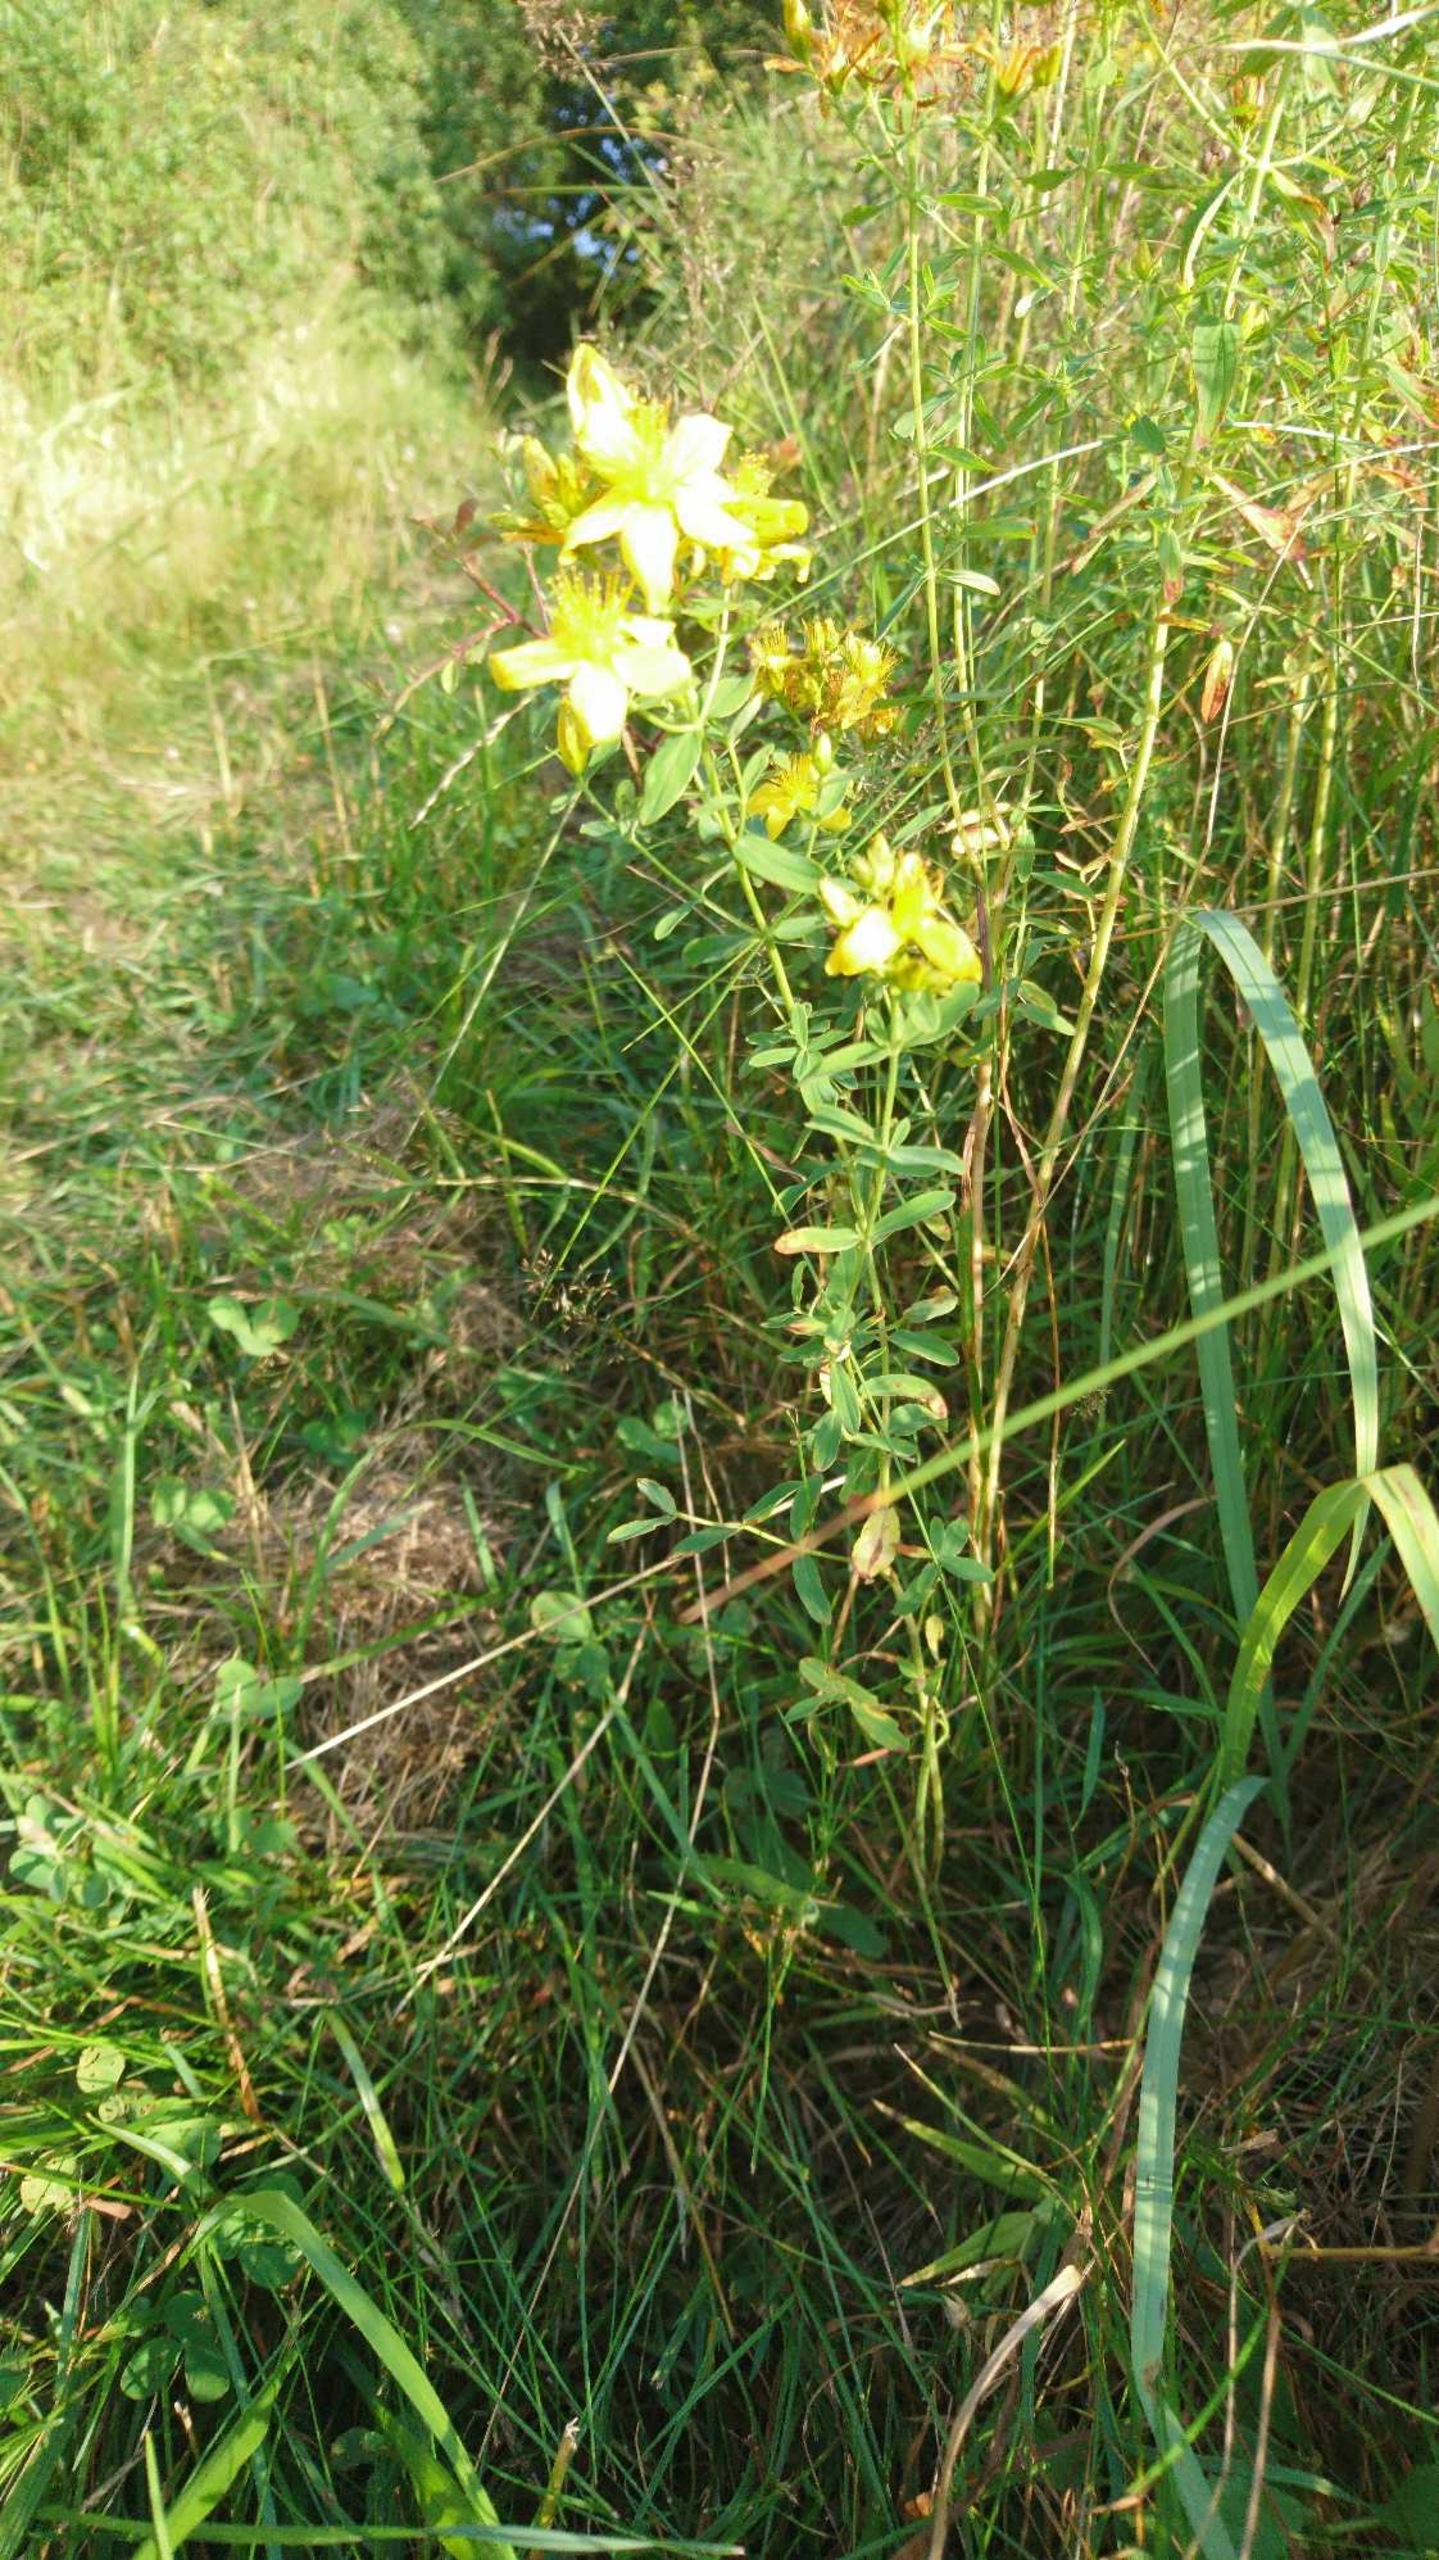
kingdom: Plantae
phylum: Tracheophyta
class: Magnoliopsida
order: Malpighiales
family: Hypericaceae
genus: Hypericum
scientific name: Hypericum perforatum
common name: Prikbladet perikon
